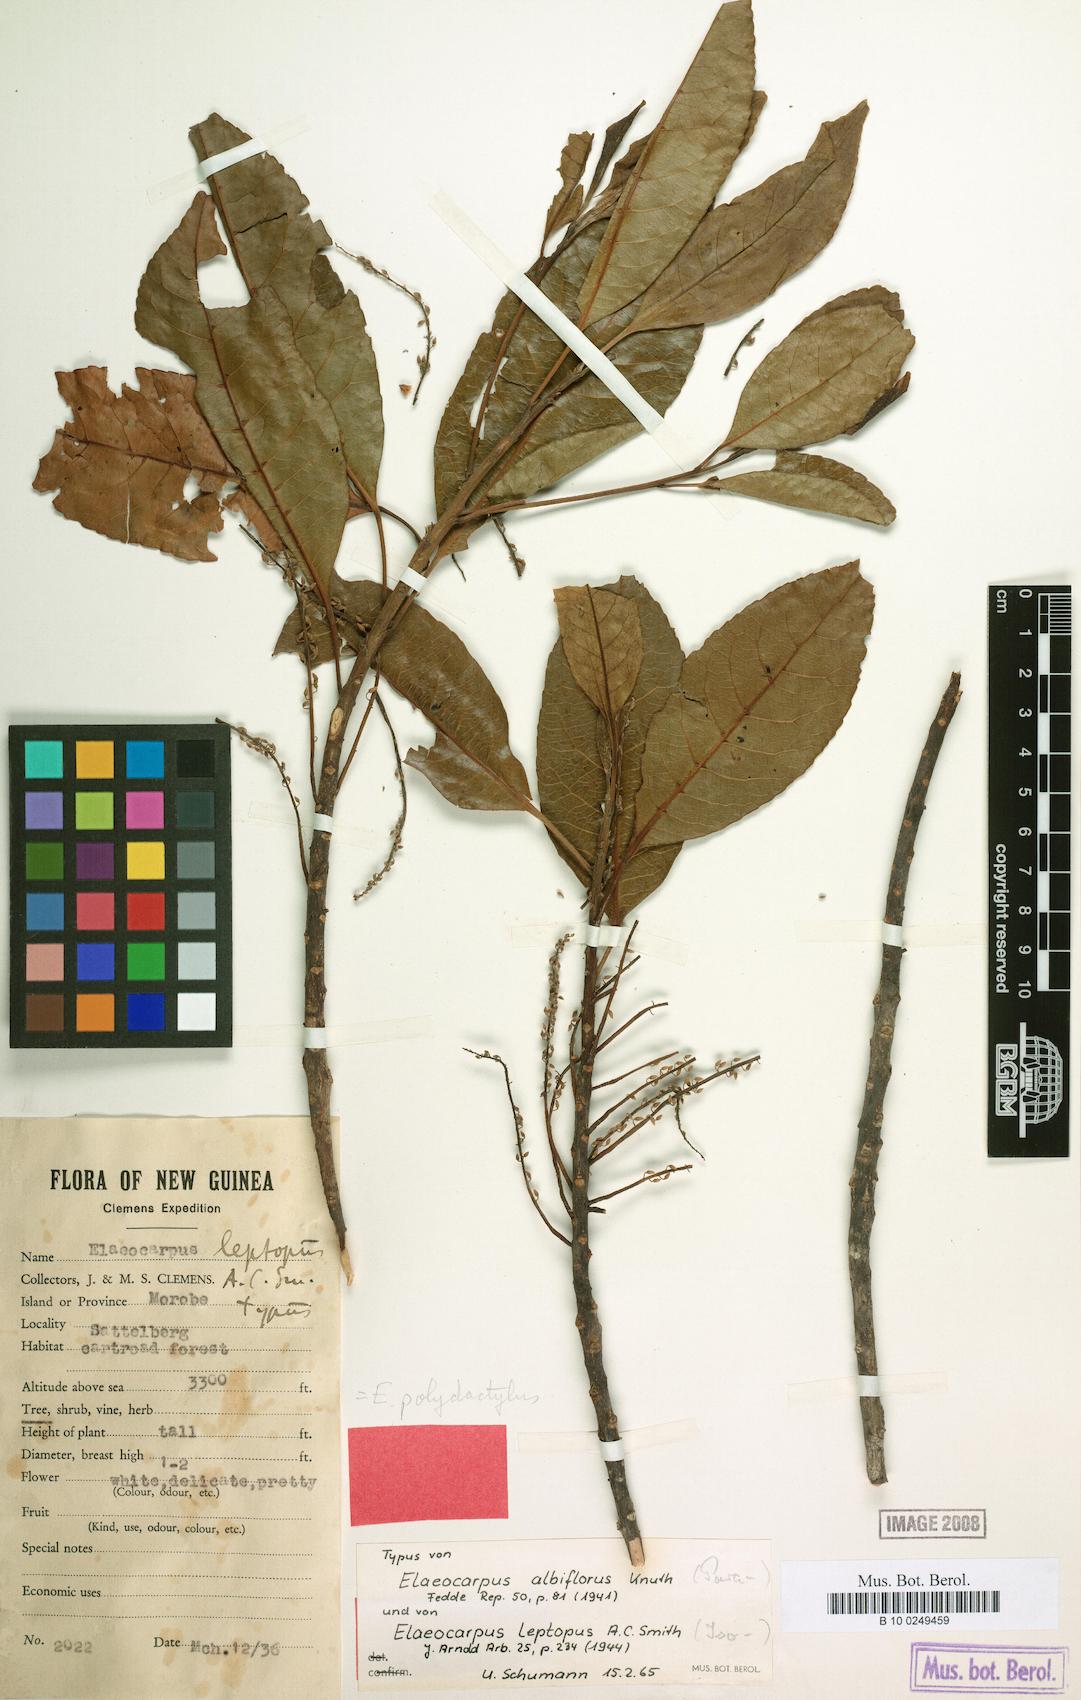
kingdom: Plantae
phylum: Tracheophyta
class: Magnoliopsida
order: Oxalidales
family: Elaeocarpaceae
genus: Elaeocarpus
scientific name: Elaeocarpus polydactylus
